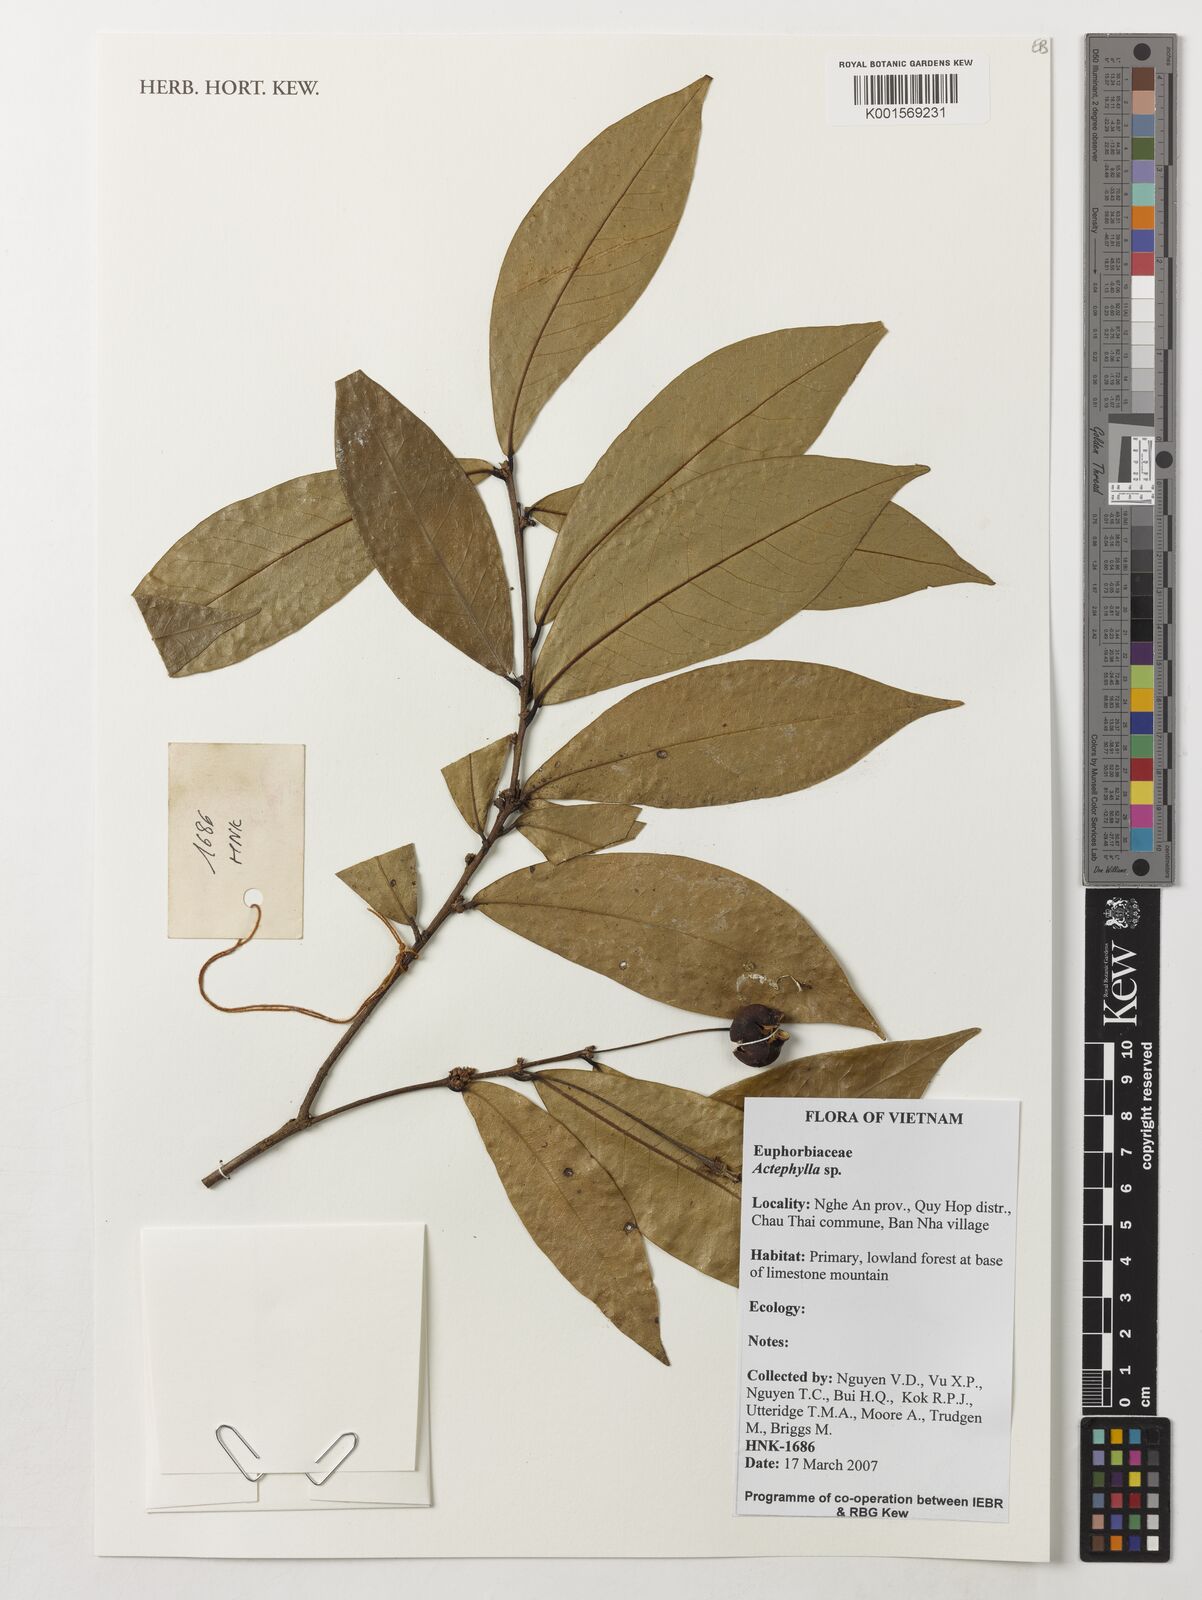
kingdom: Plantae
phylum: Tracheophyta
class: Magnoliopsida
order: Malpighiales
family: Phyllanthaceae
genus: Actephila
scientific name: Actephila
